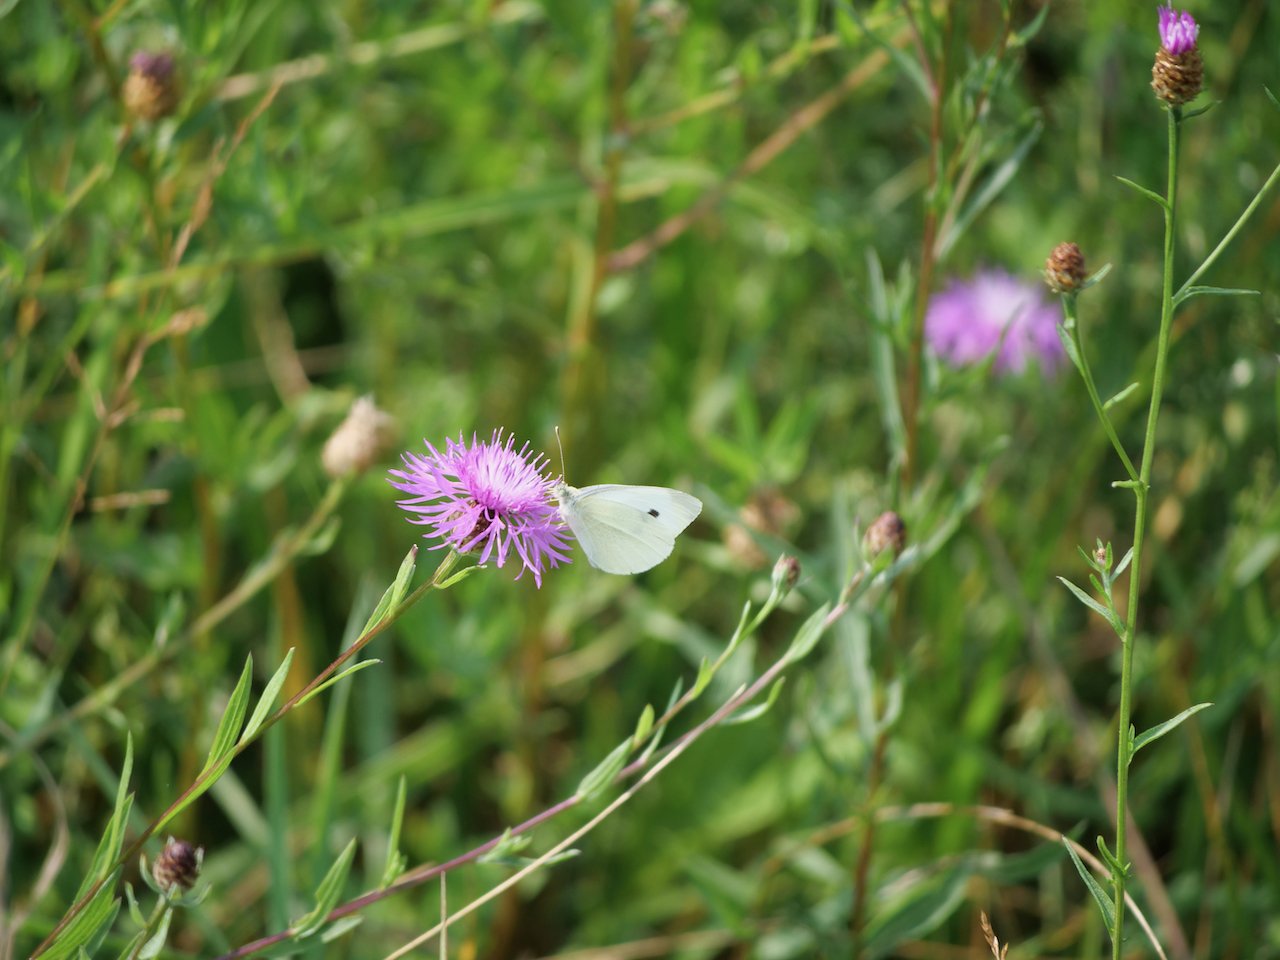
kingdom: Animalia
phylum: Arthropoda
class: Insecta
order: Lepidoptera
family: Pieridae
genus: Pieris
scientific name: Pieris rapae
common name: Cabbage White
